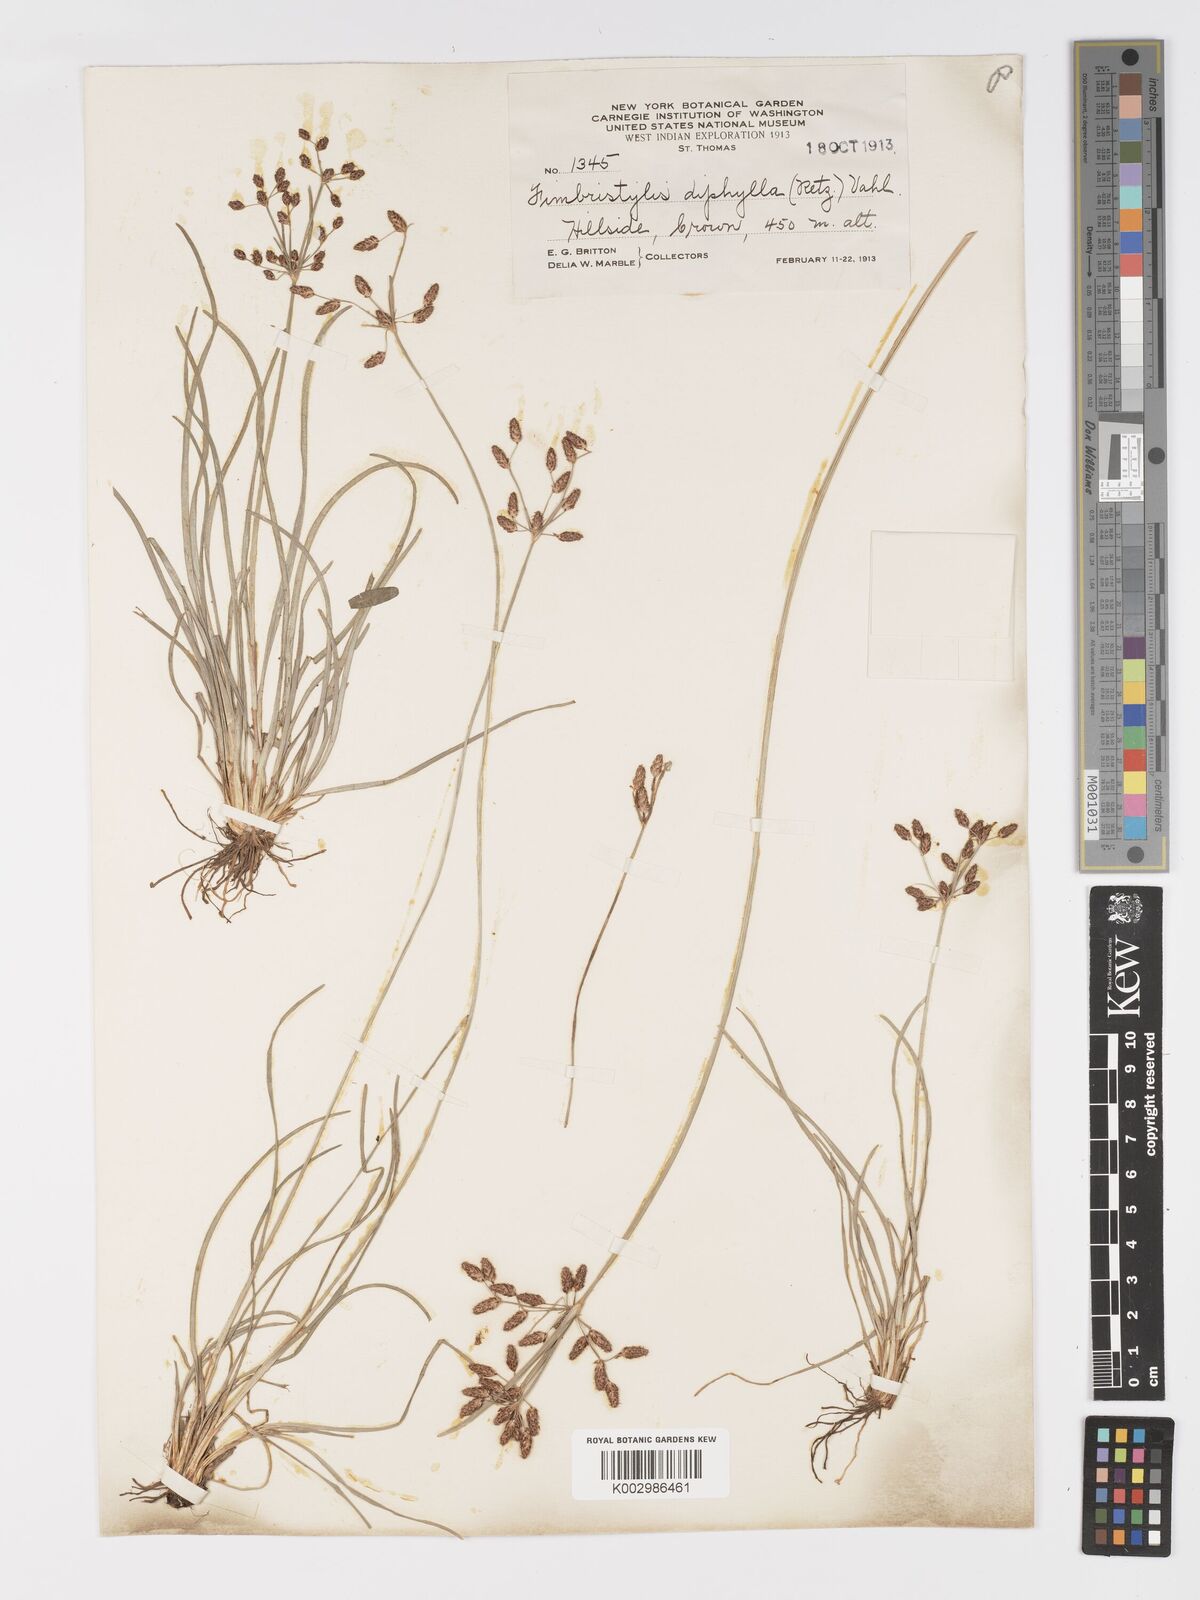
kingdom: Plantae
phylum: Tracheophyta
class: Liliopsida
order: Poales
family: Cyperaceae
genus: Fimbristylis
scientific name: Fimbristylis dichotoma
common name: Forked fimbry
